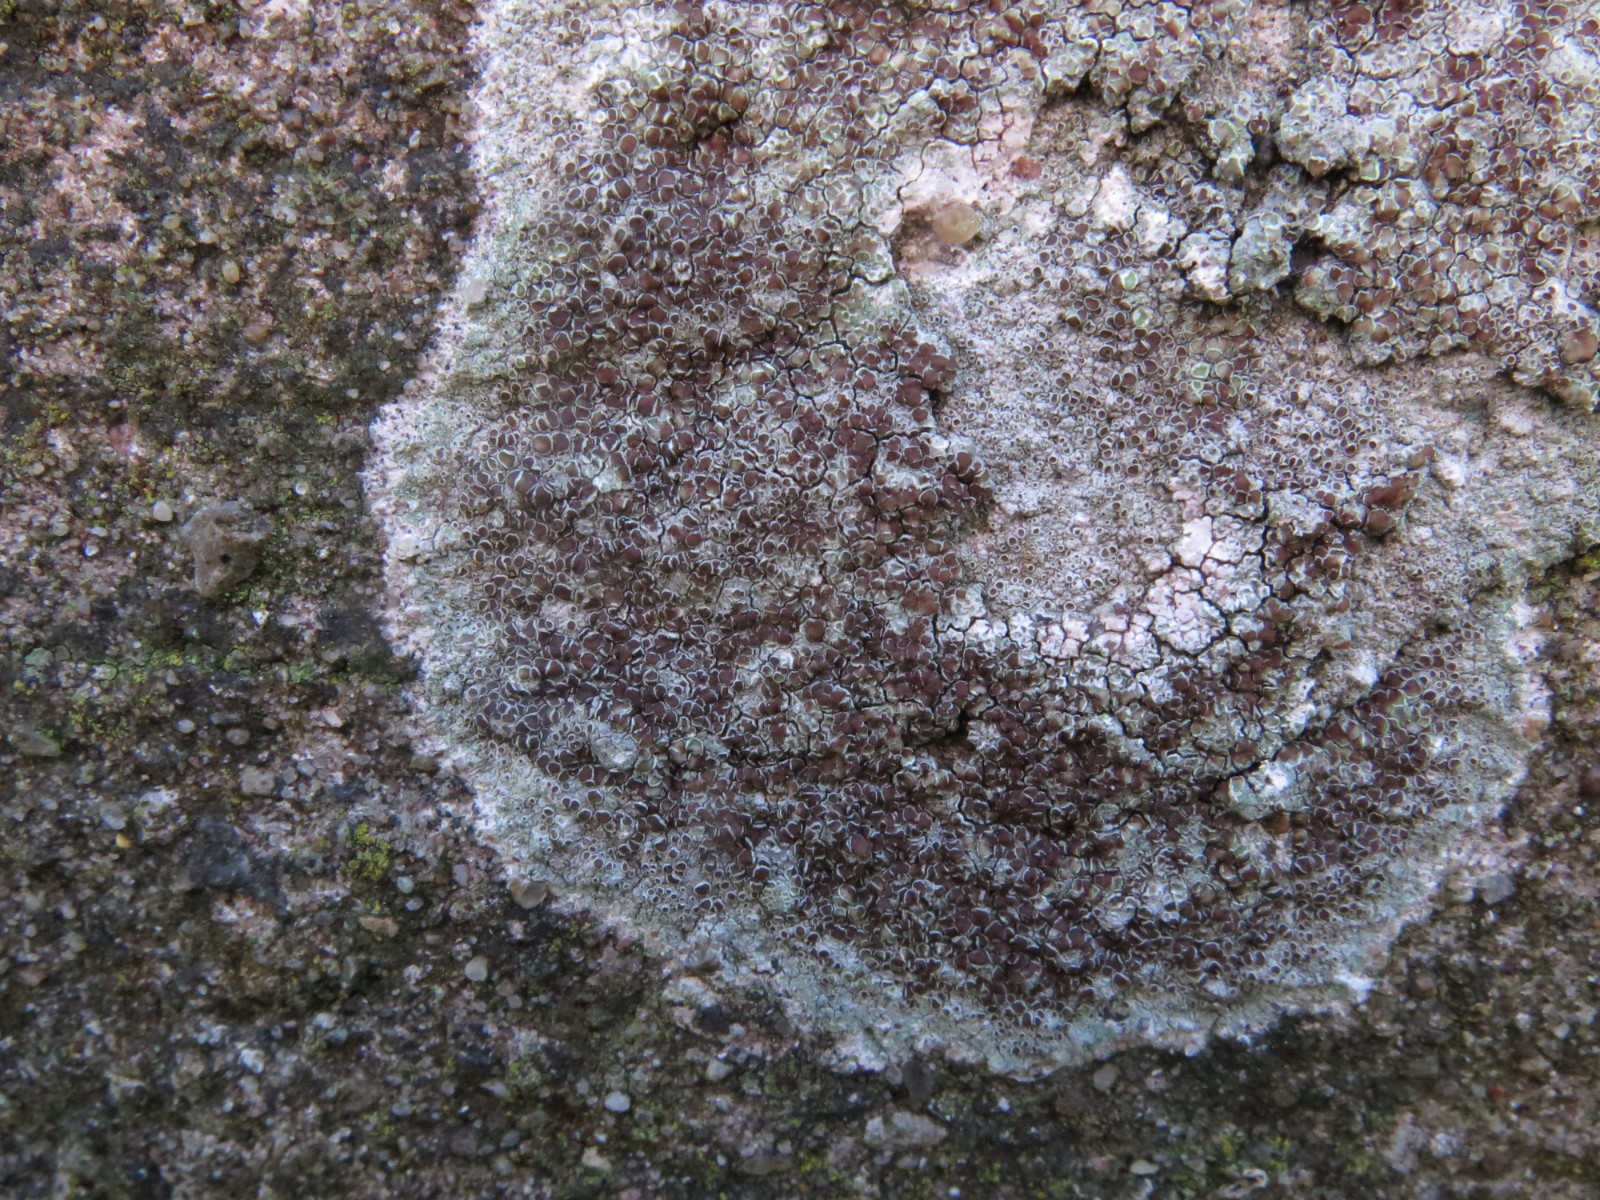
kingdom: Fungi
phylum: Ascomycota
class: Lecanoromycetes
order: Lecanorales
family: Lecanoraceae
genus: Lecanora
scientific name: Lecanora campestris
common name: mur-kantskivelav
